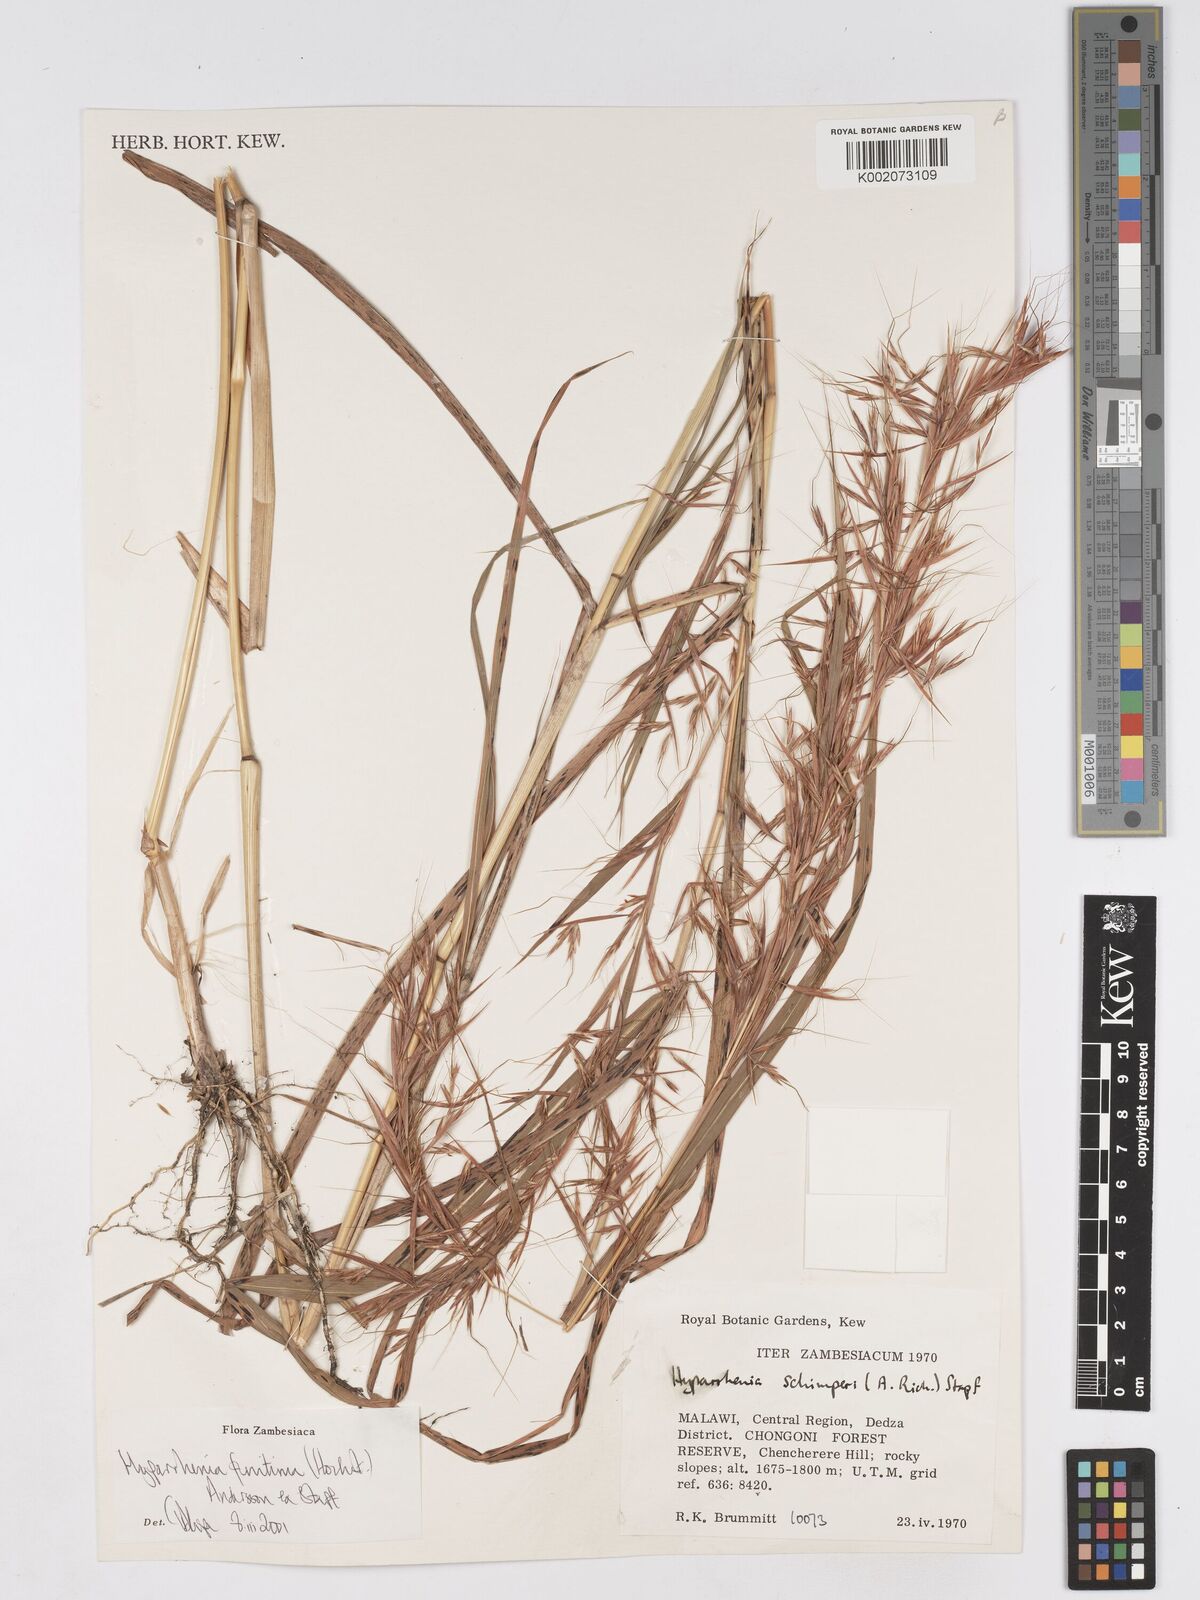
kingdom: Plantae
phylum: Tracheophyta
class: Liliopsida
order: Poales
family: Poaceae
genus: Hyparrhenia
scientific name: Hyparrhenia finitima
